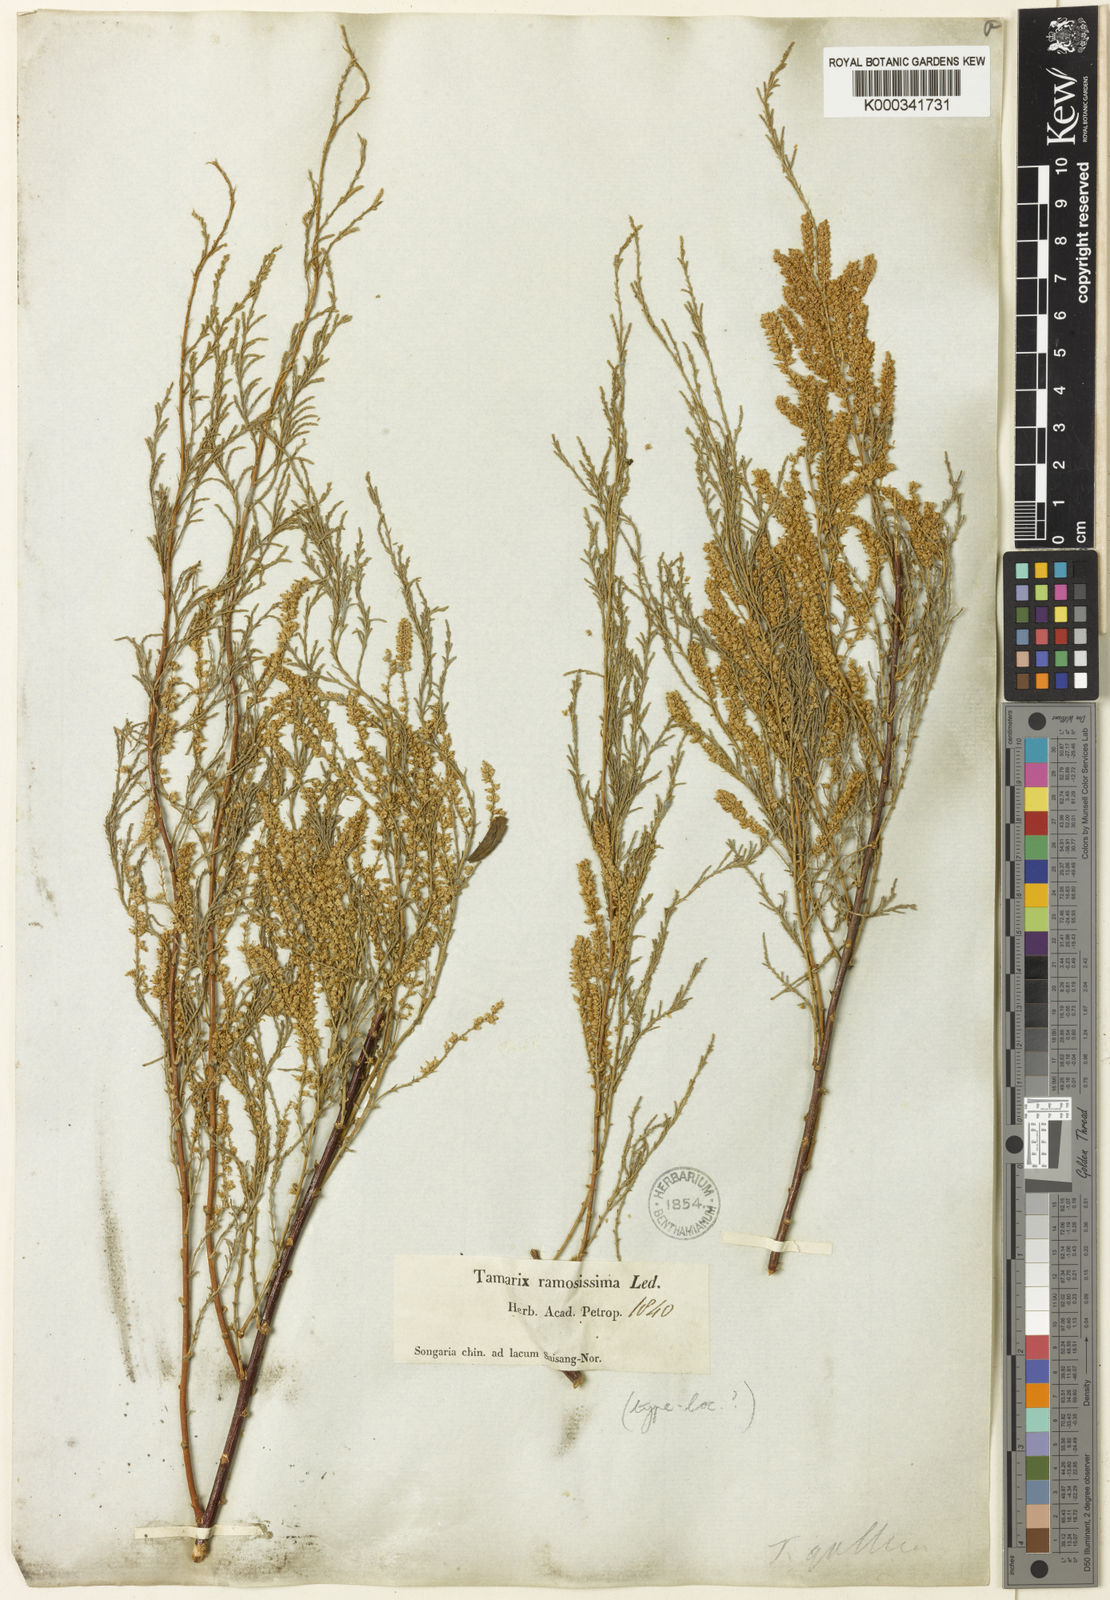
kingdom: Plantae
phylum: Tracheophyta
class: Magnoliopsida
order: Caryophyllales
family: Tamaricaceae
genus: Tamarix
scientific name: Tamarix ramosissima
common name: Pink tamarisk
